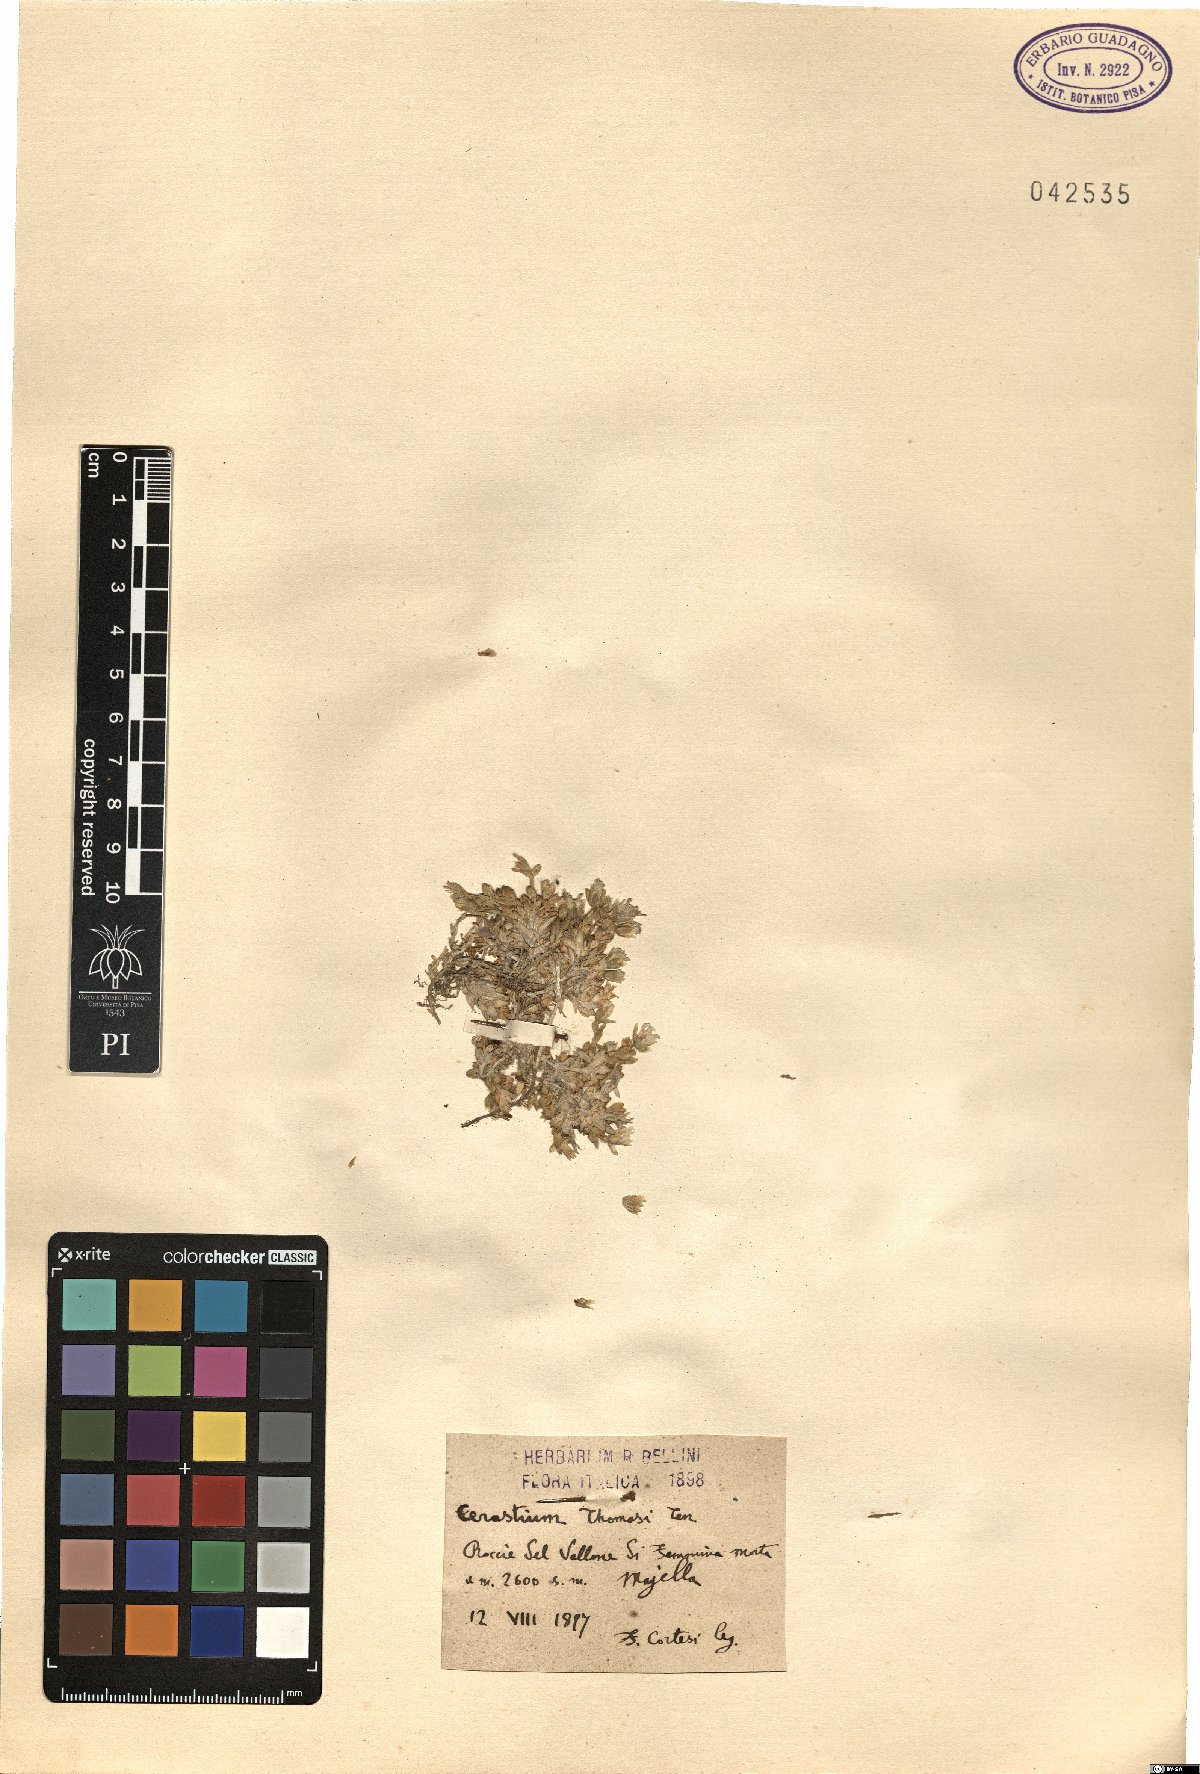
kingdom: Plantae
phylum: Tracheophyta
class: Magnoliopsida
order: Caryophyllales
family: Caryophyllaceae
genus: Cerastium
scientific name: Cerastium thomasii
